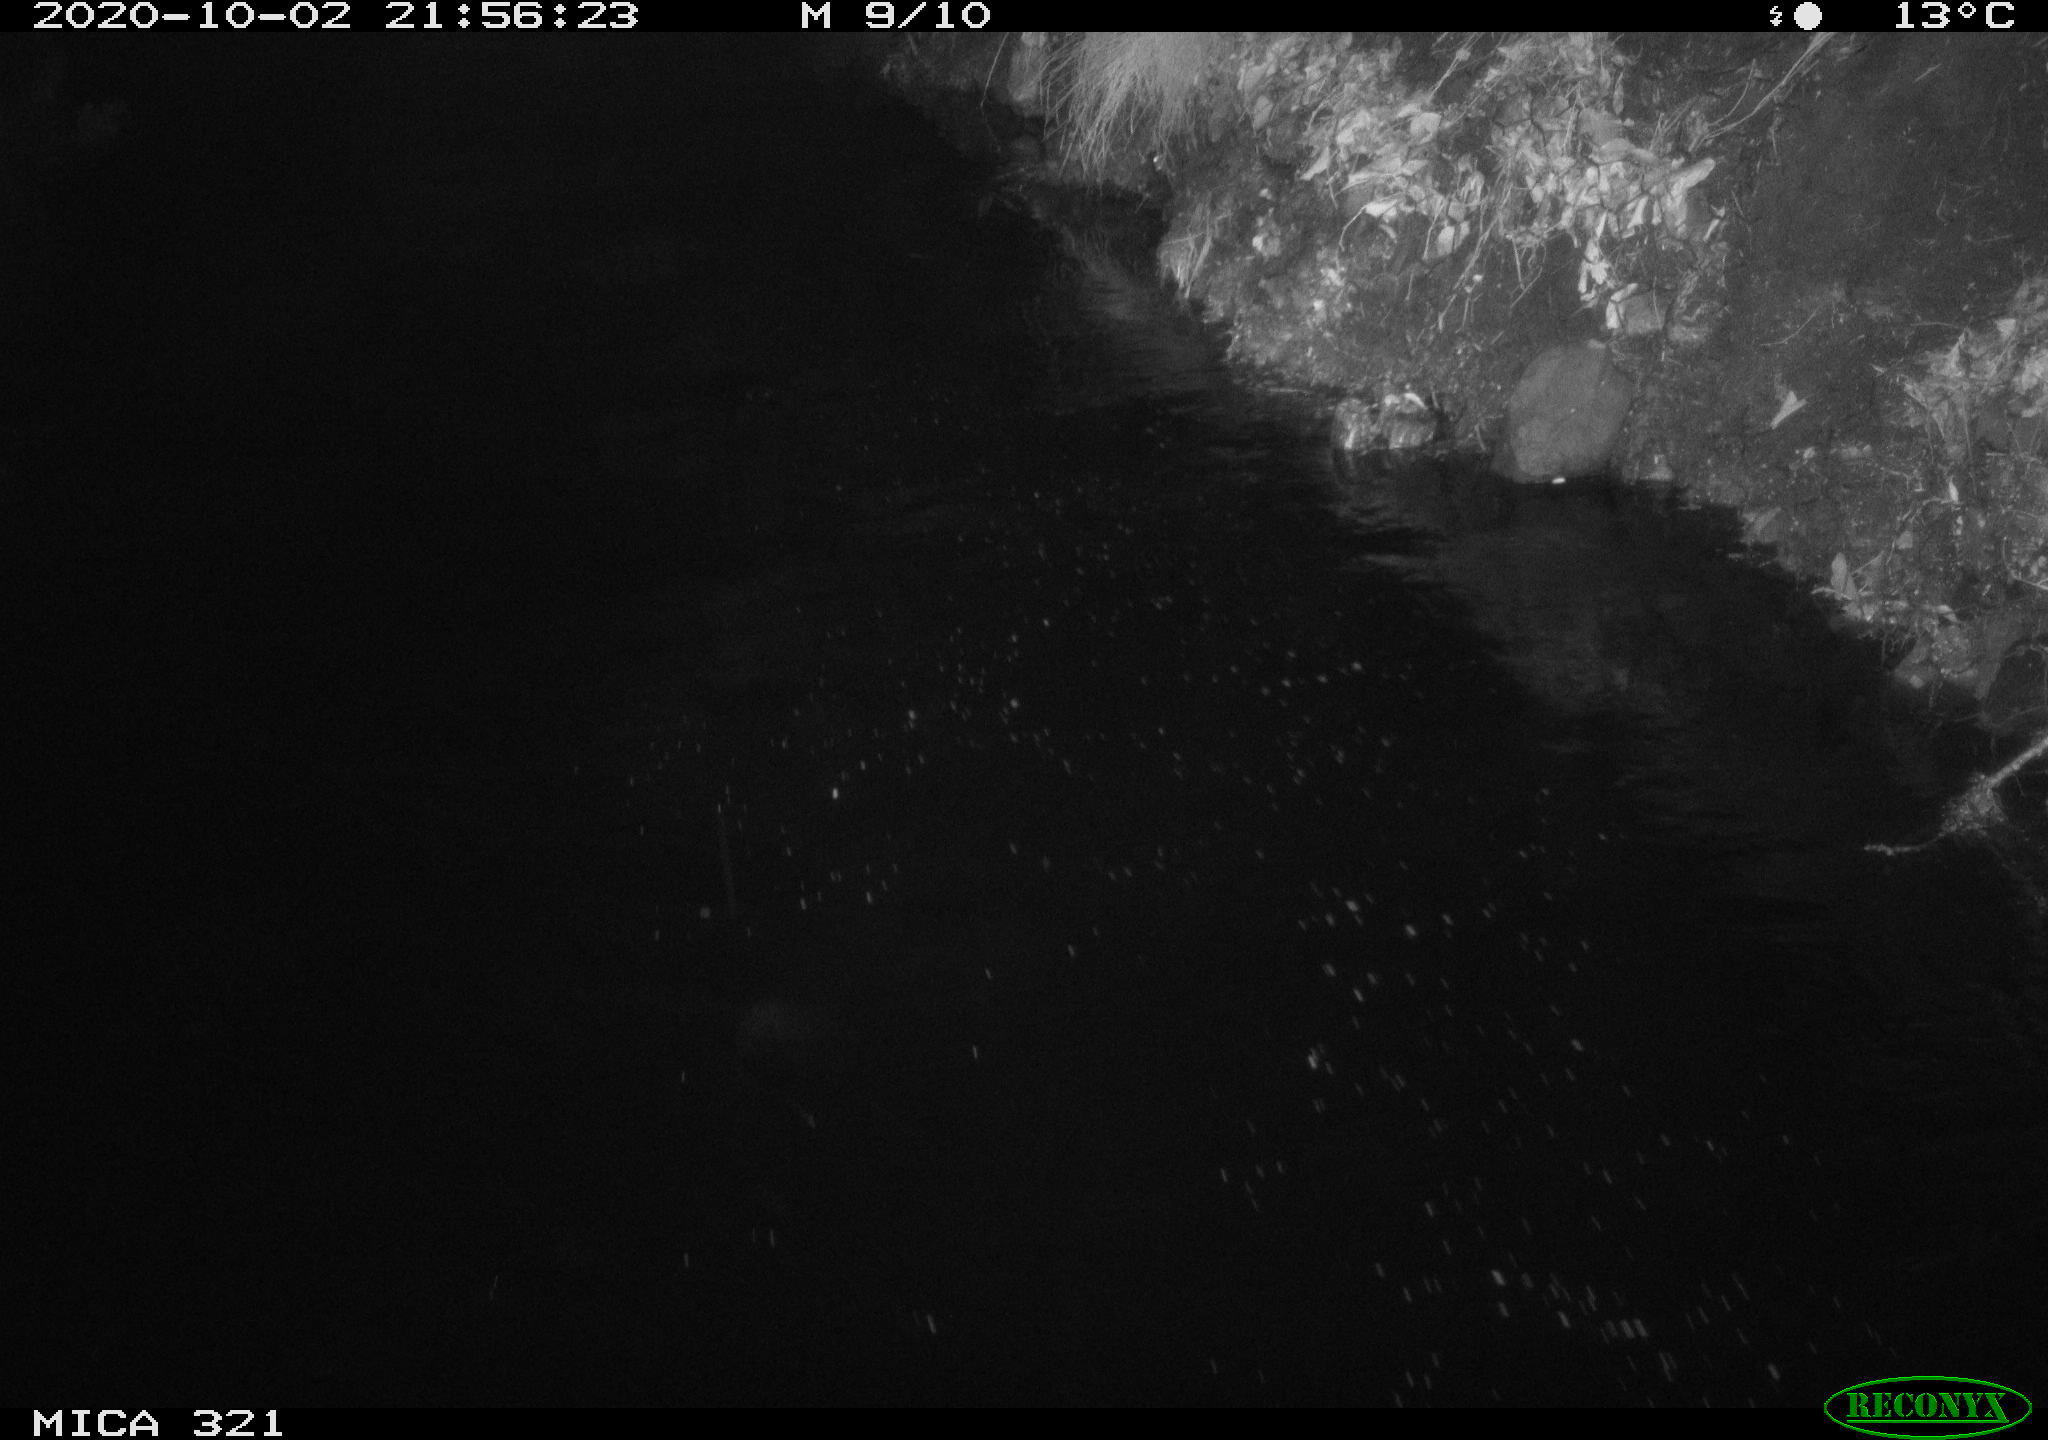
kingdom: Animalia
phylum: Chordata
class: Mammalia
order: Rodentia
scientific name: Rodentia
